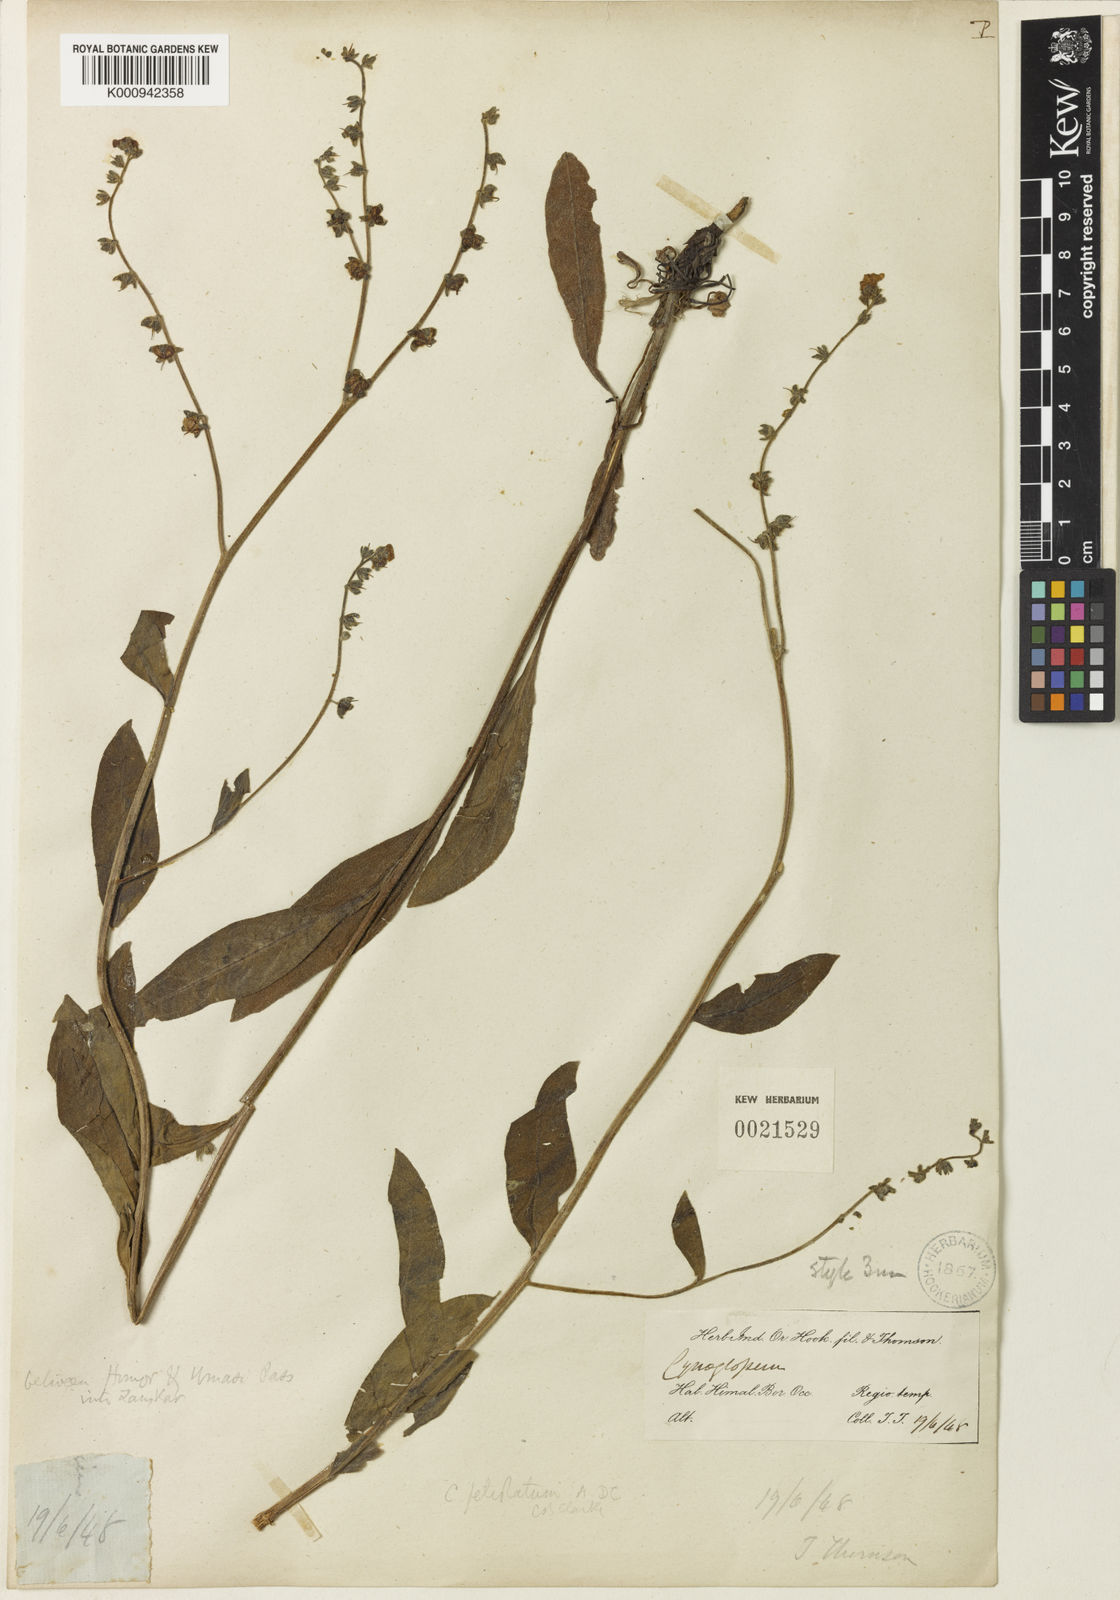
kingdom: Plantae
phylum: Tracheophyta
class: Magnoliopsida
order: Boraginales
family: Boraginaceae
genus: Cynoglossum
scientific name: Cynoglossum microglochin
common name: Smallbristle hound's tongue
